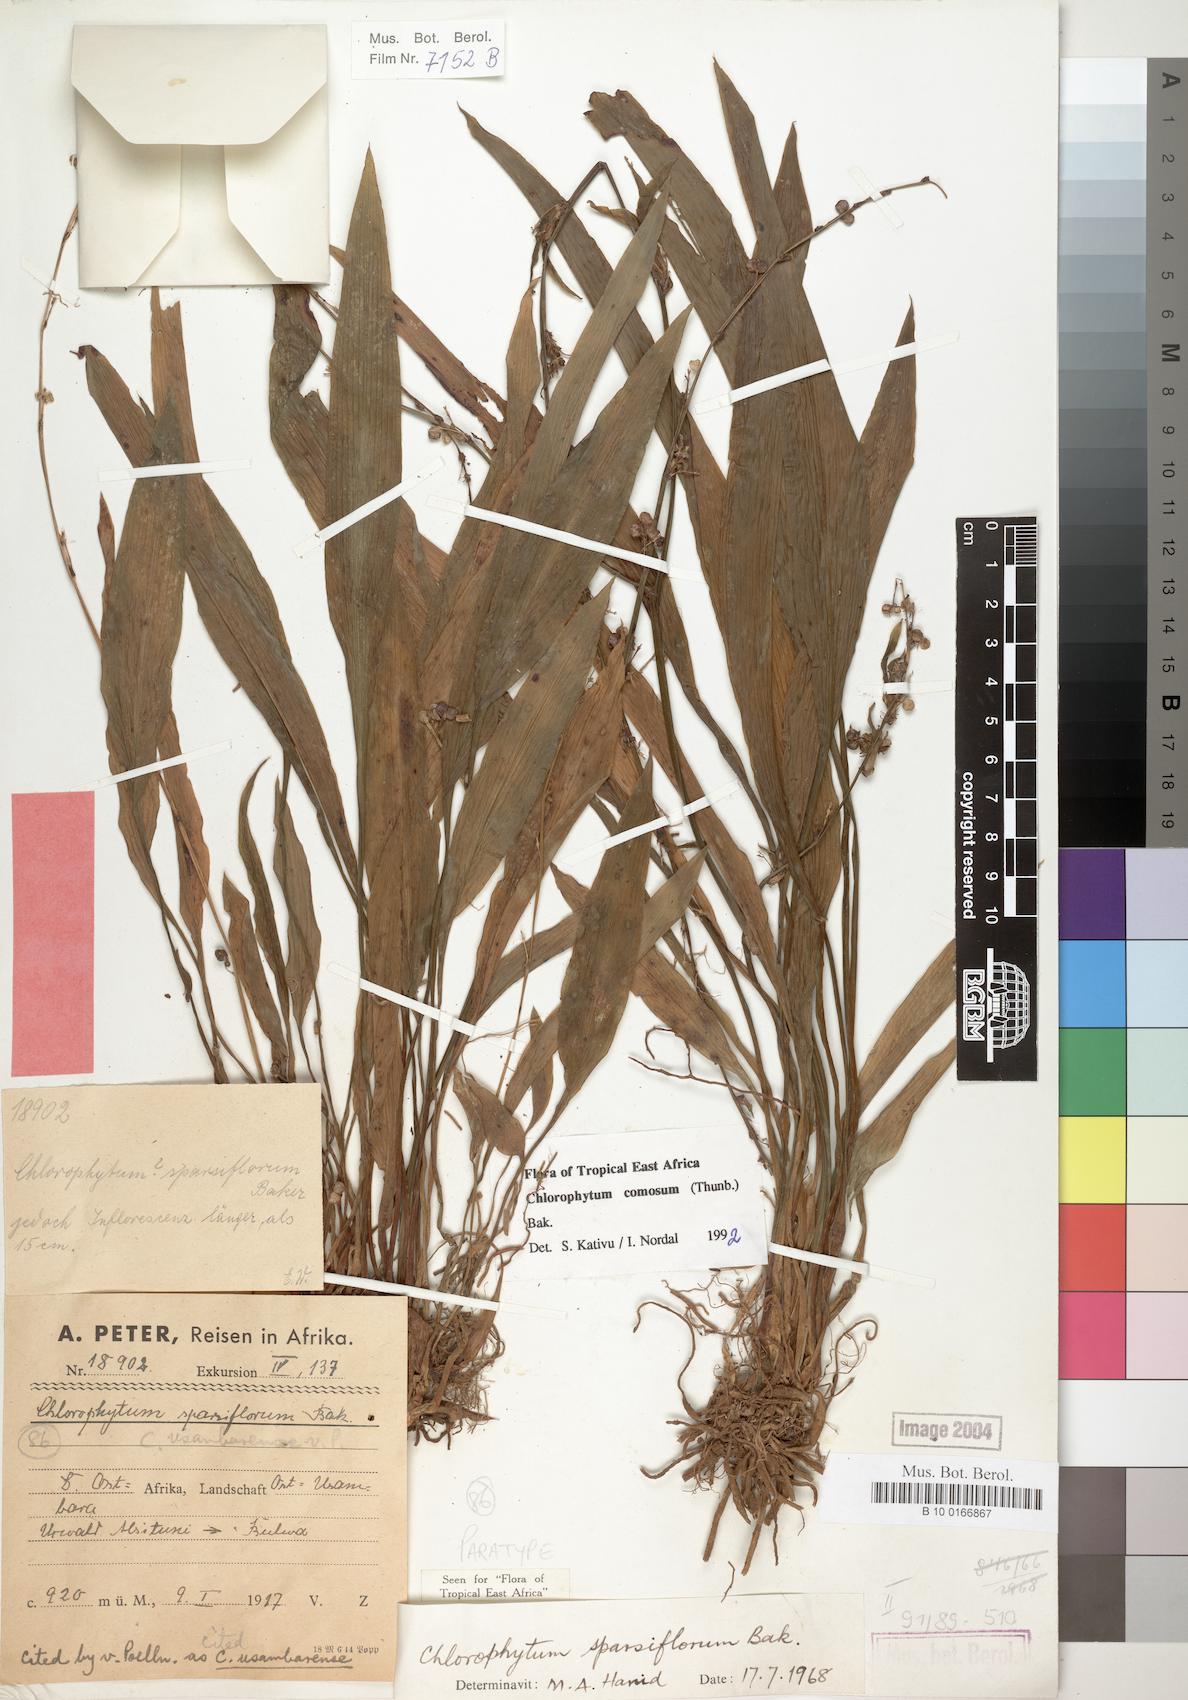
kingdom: Plantae
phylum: Tracheophyta
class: Liliopsida
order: Asparagales
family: Asparagaceae
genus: Chlorophytum
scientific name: Chlorophytum comosum
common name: Spider plant
